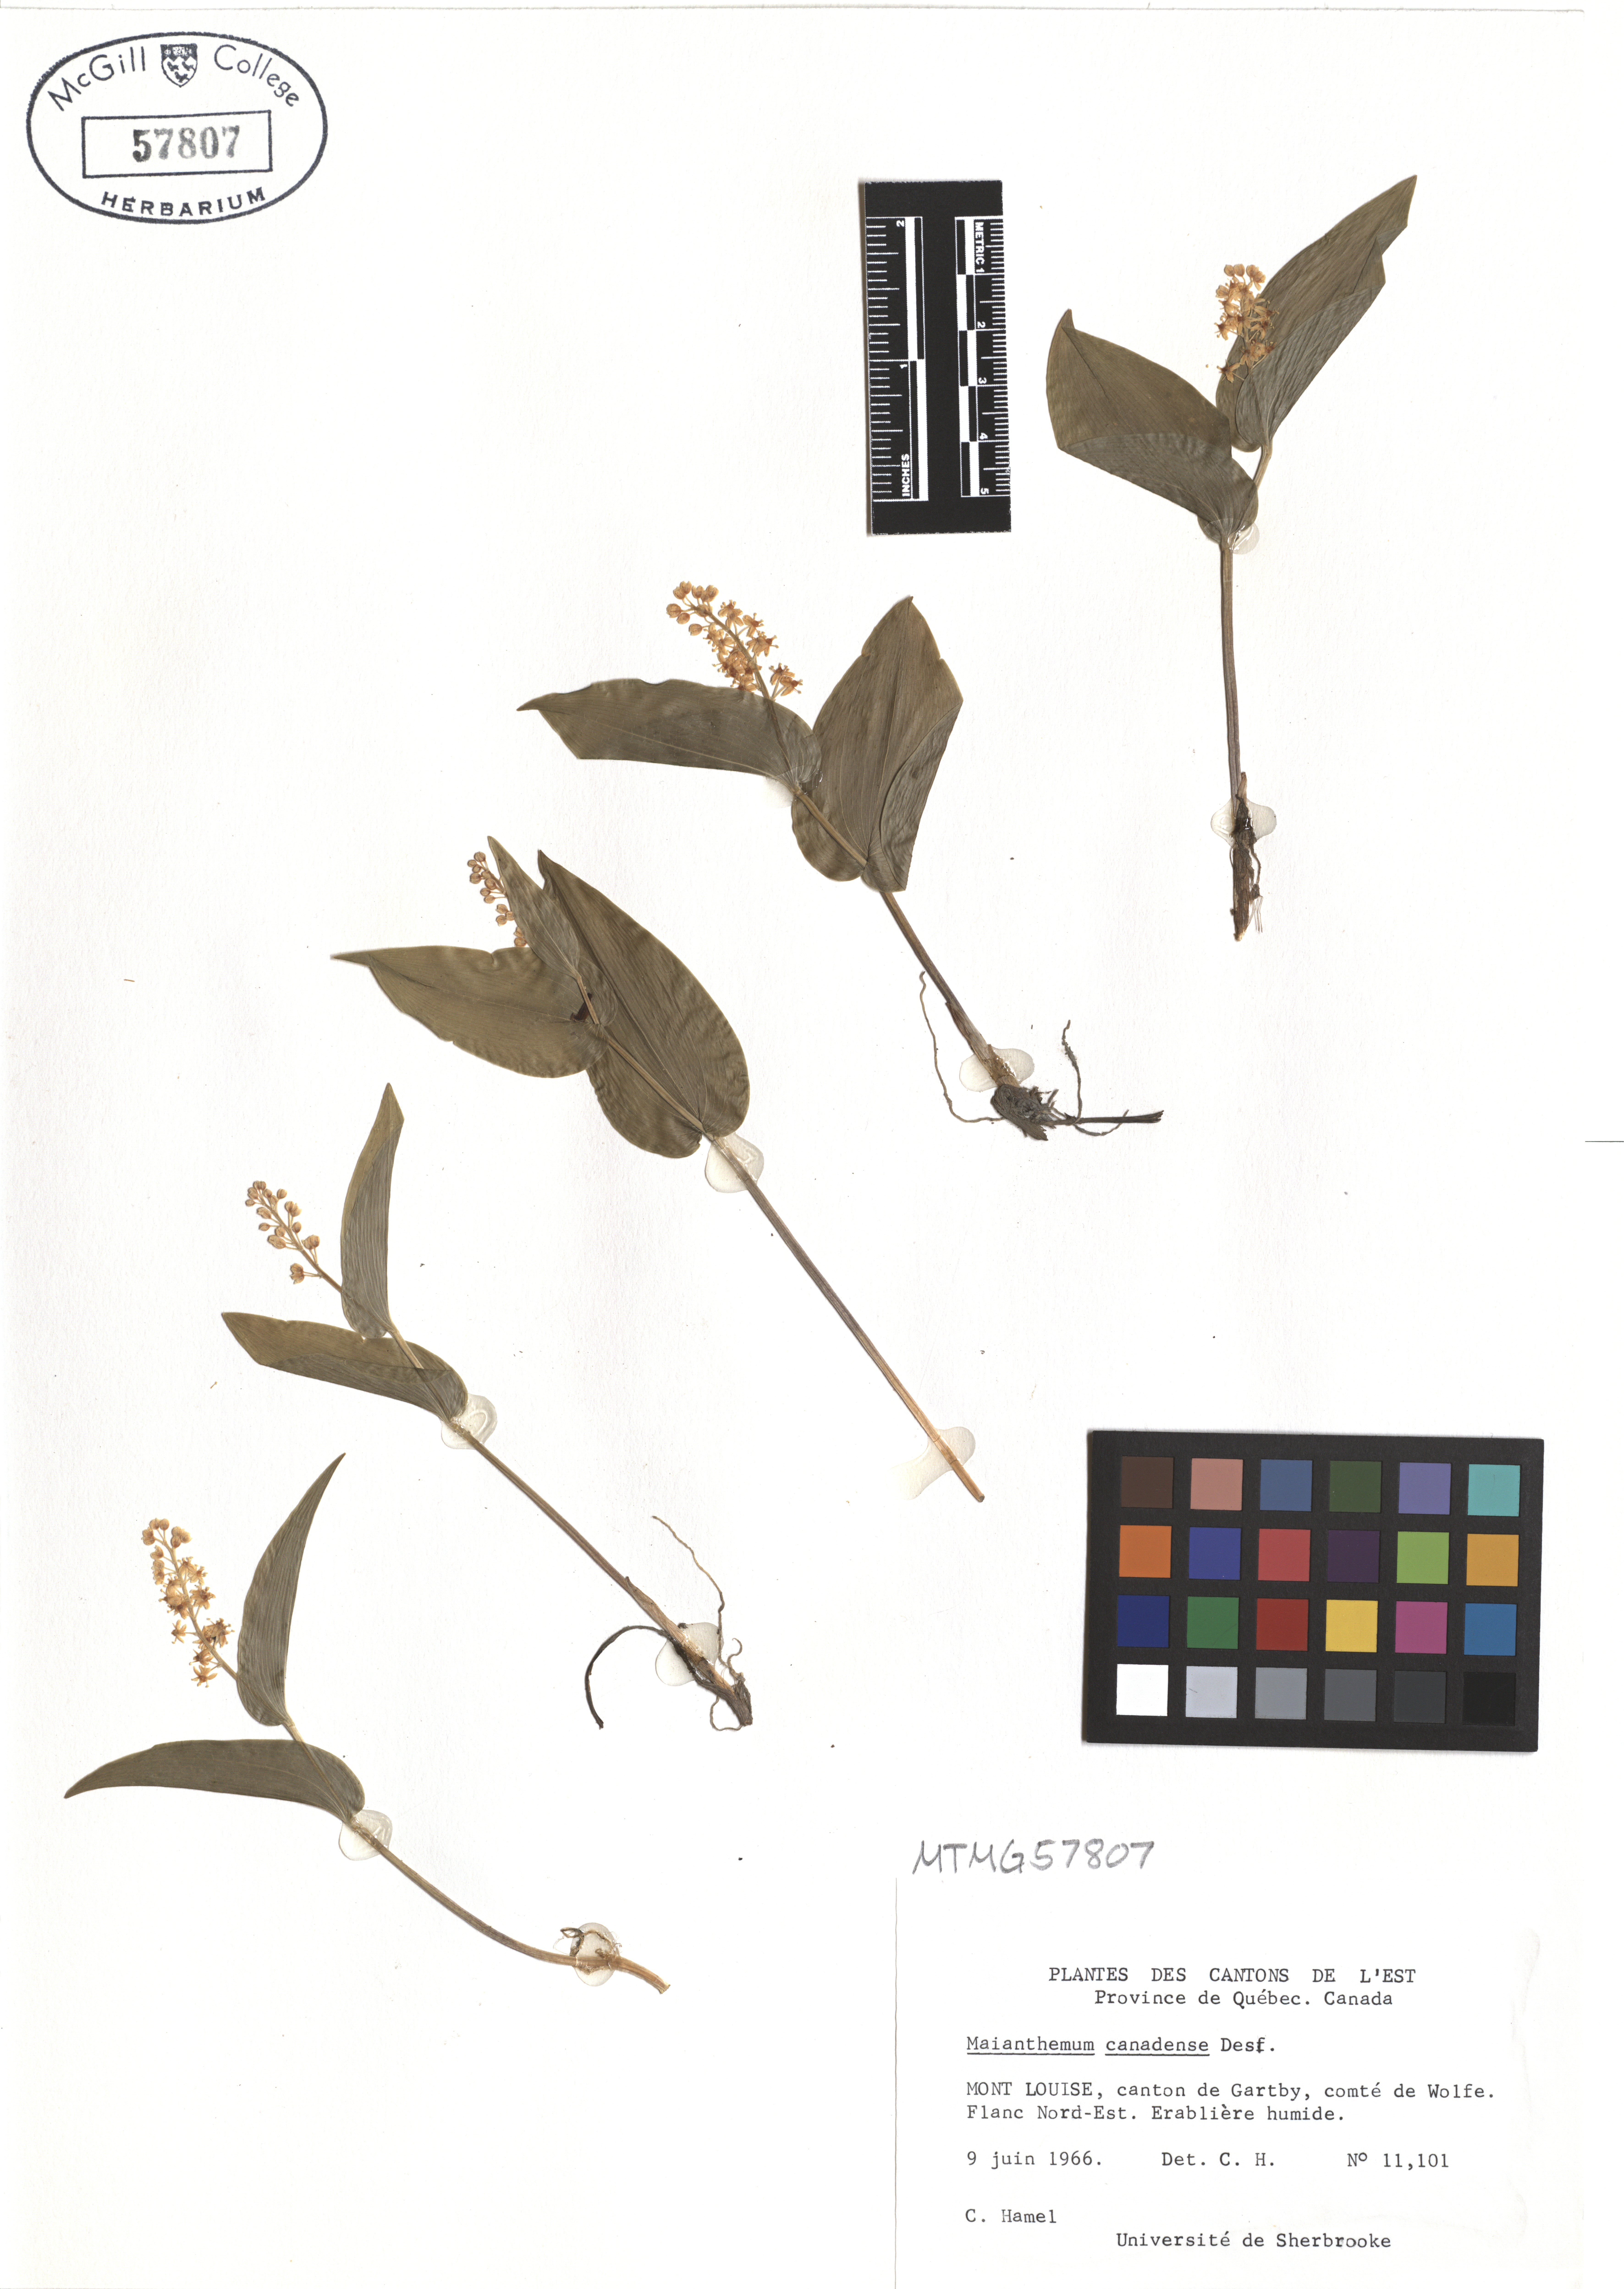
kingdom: Plantae
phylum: Tracheophyta
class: Liliopsida
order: Asparagales
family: Asparagaceae
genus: Maianthemum
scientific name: Maianthemum canadense
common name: False lily-of-the-valley
